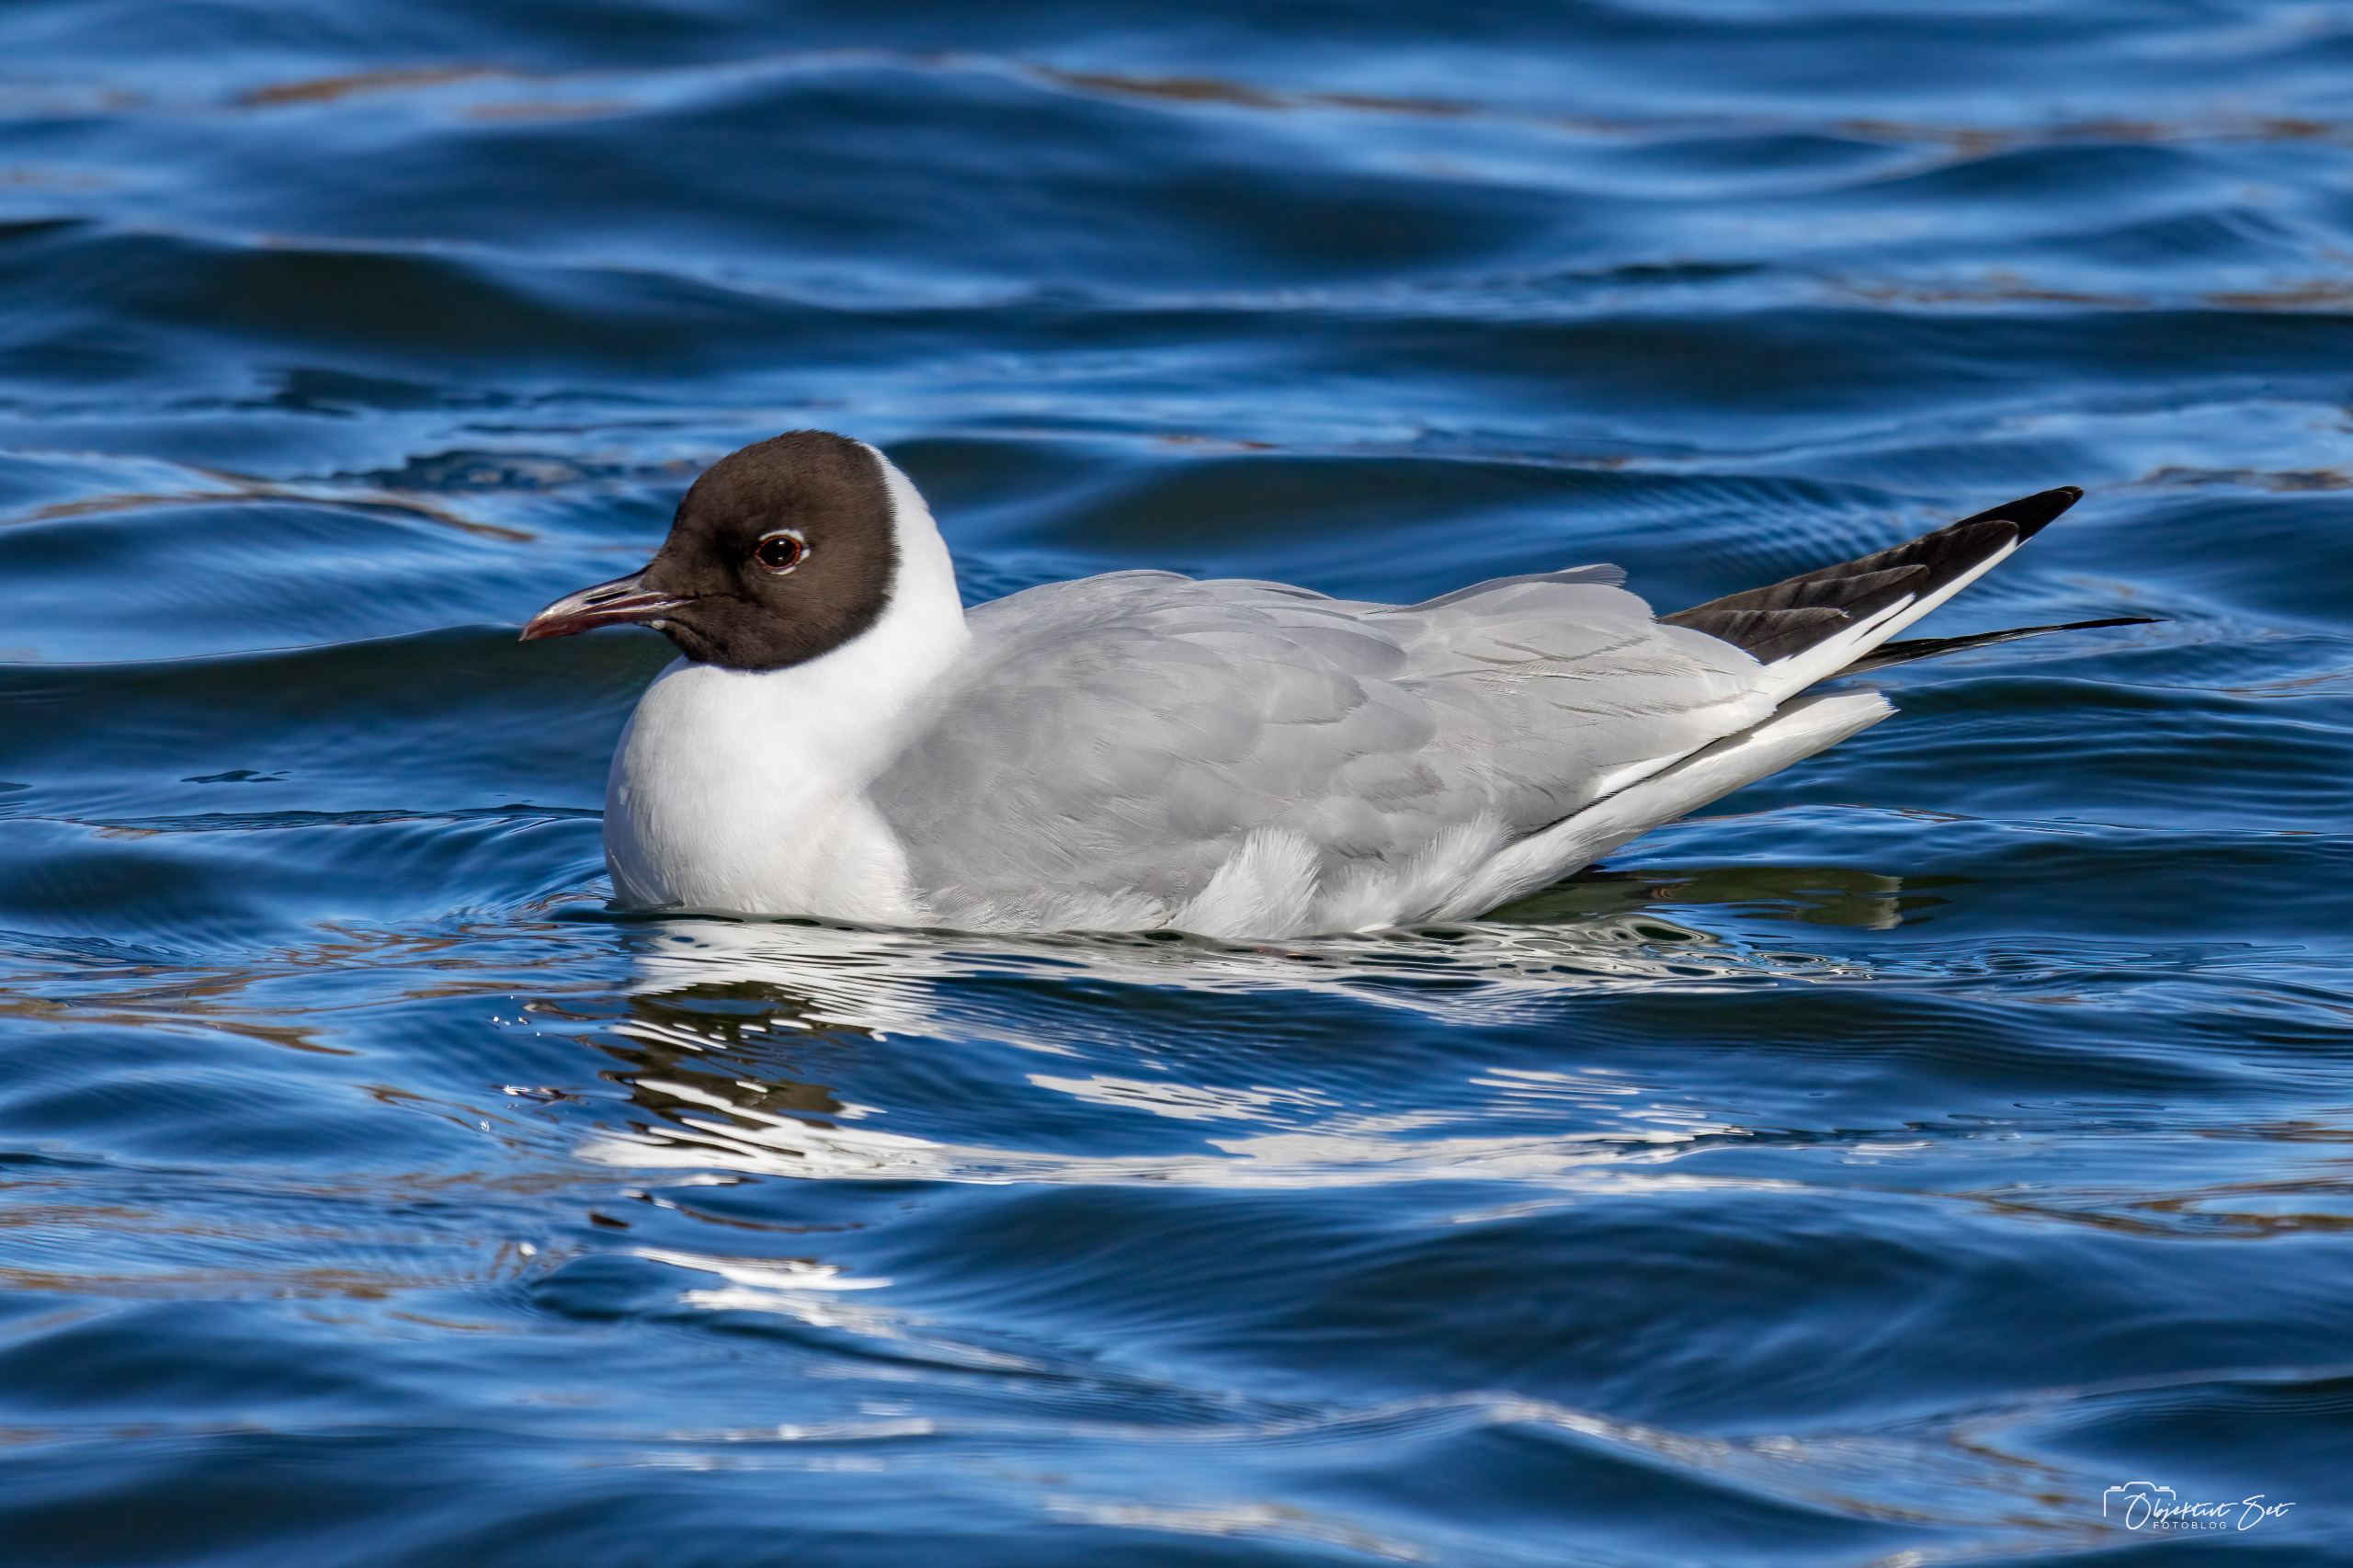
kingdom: Animalia
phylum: Chordata
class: Aves
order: Charadriiformes
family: Laridae
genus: Chroicocephalus
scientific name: Chroicocephalus ridibundus
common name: Hættemåge
